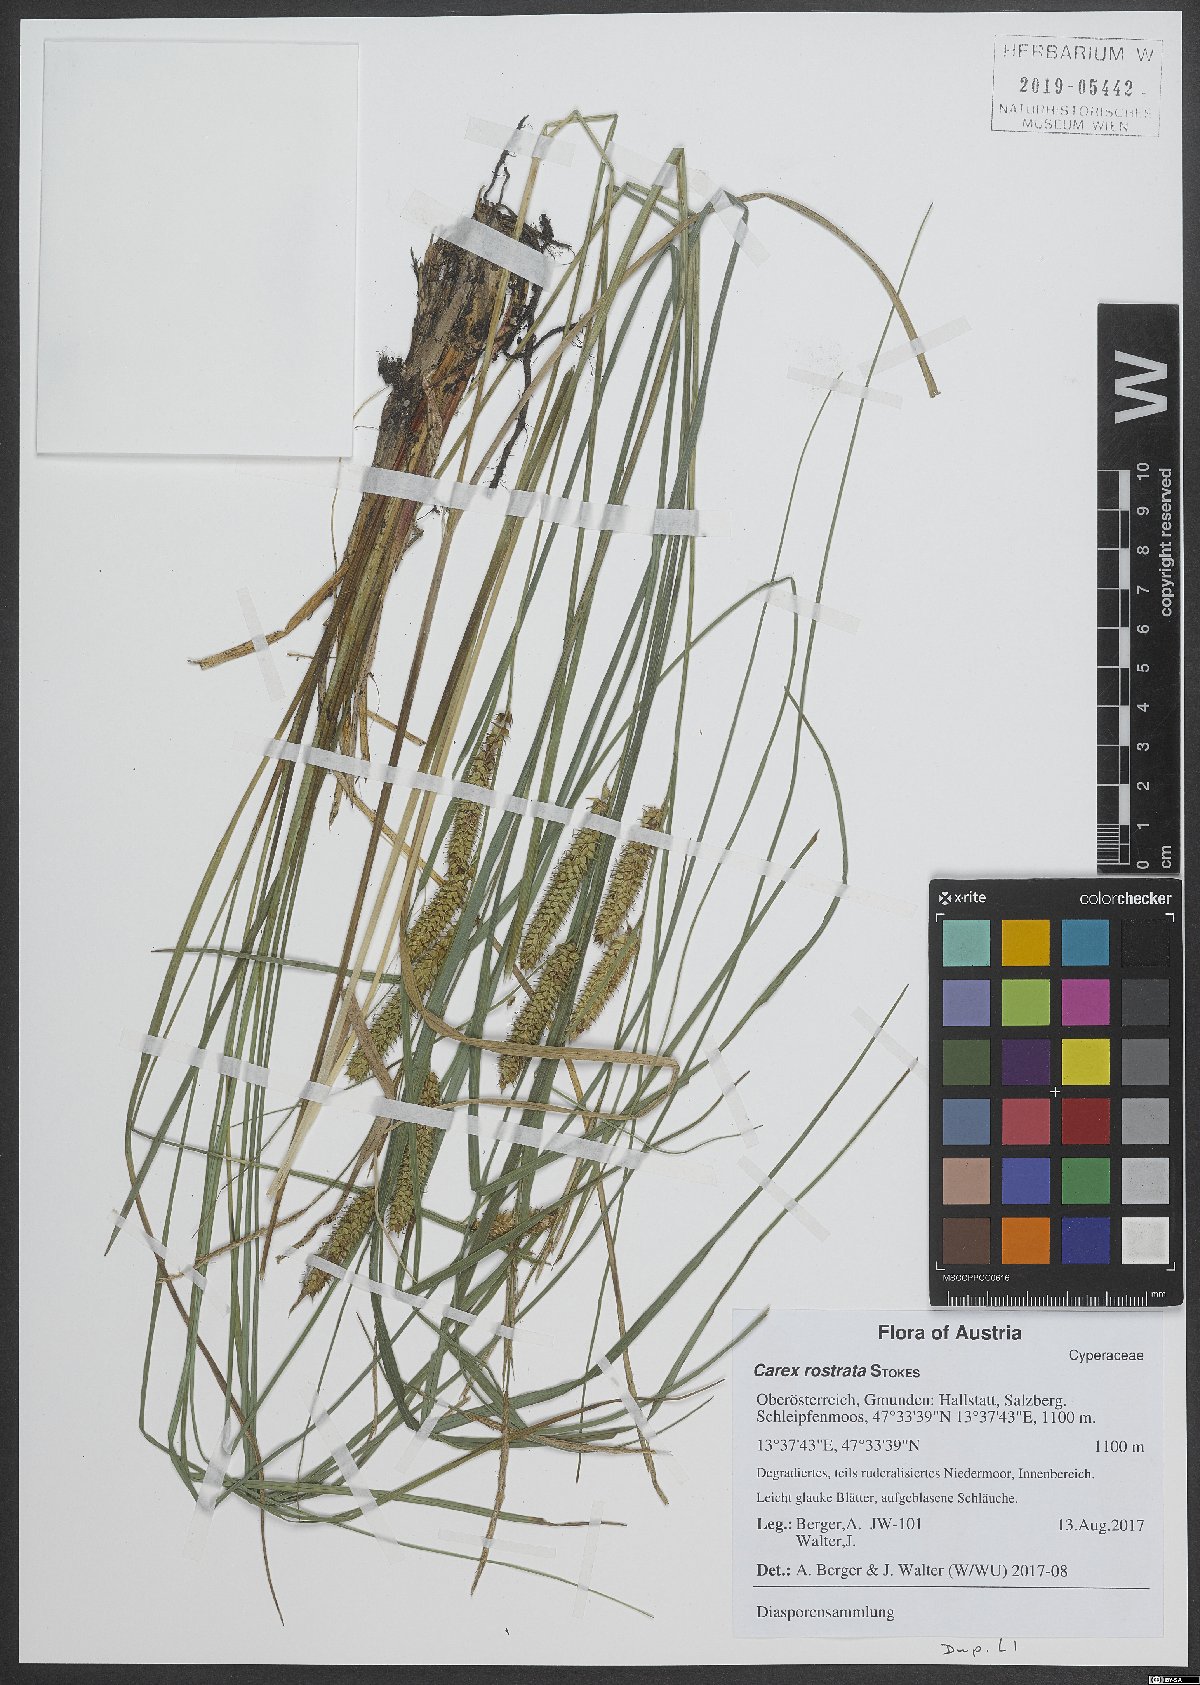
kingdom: Plantae
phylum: Tracheophyta
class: Liliopsida
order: Poales
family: Cyperaceae
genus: Carex
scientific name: Carex rostrata
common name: Bottle sedge
